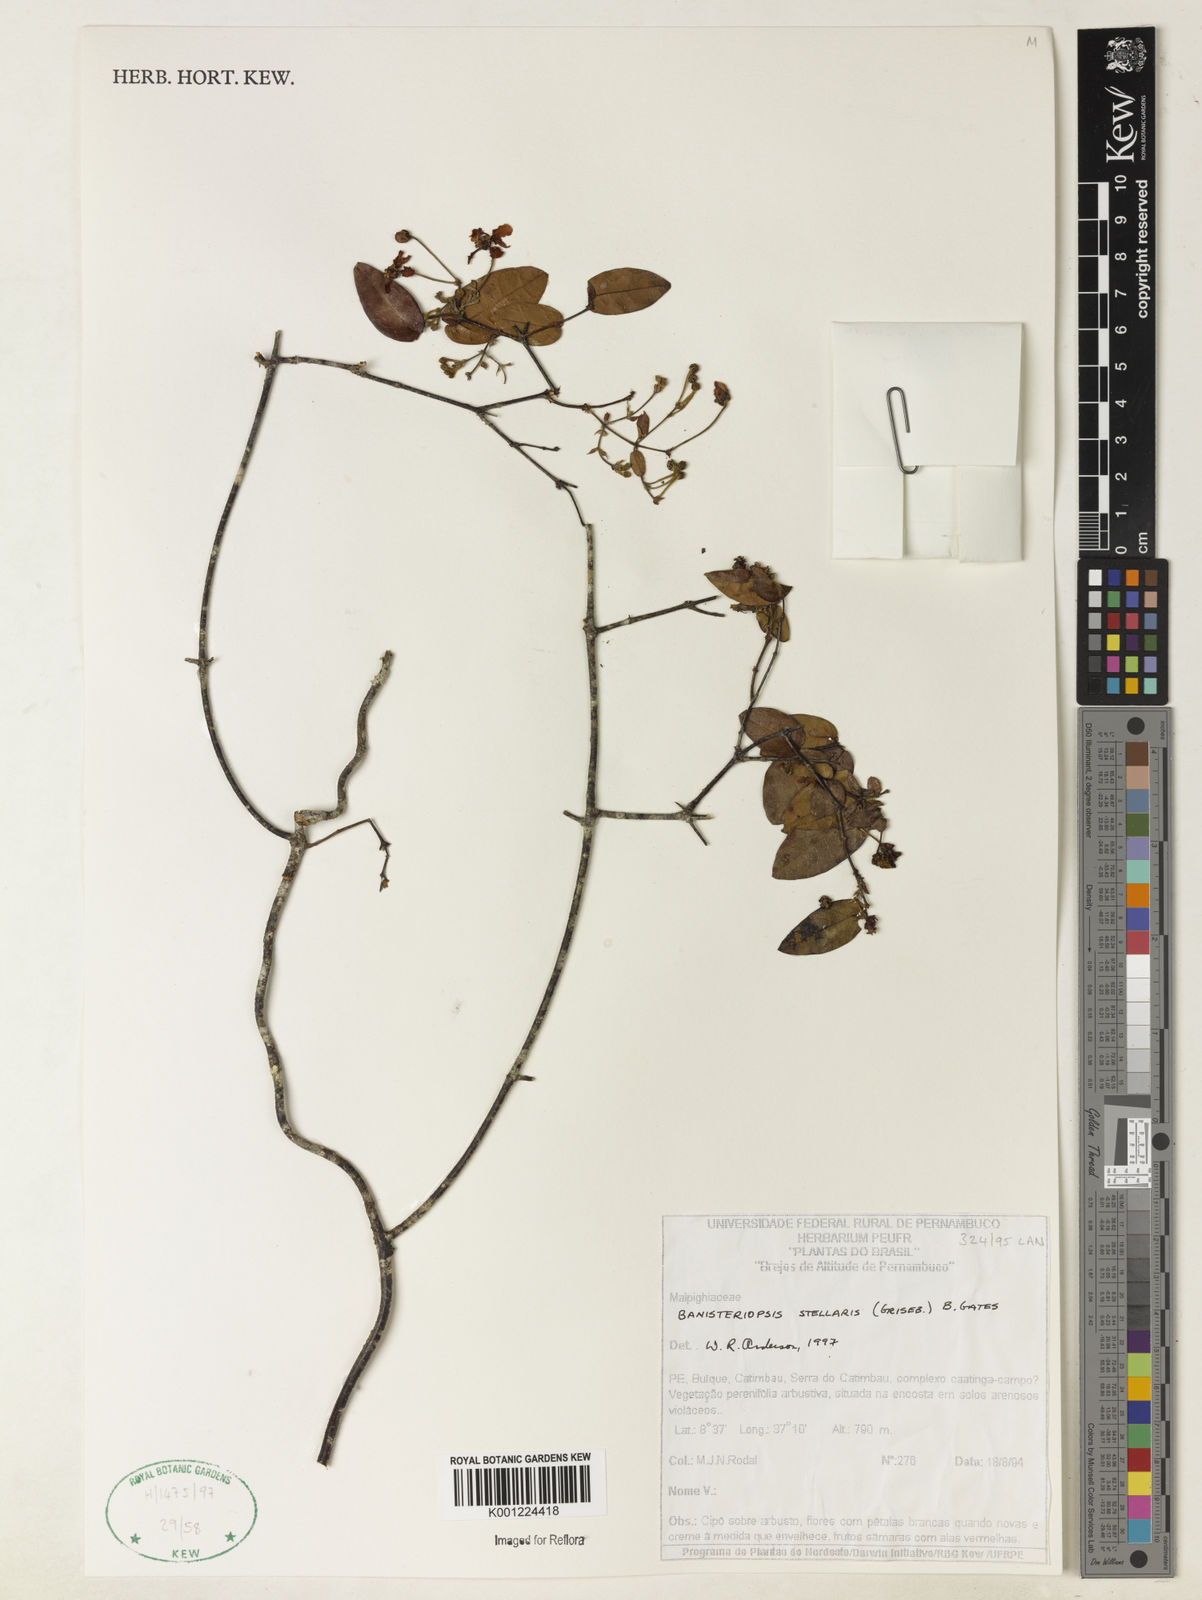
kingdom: Plantae
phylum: Tracheophyta
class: Magnoliopsida
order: Malpighiales
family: Malpighiaceae
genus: Banisteriopsis
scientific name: Banisteriopsis stellaris
